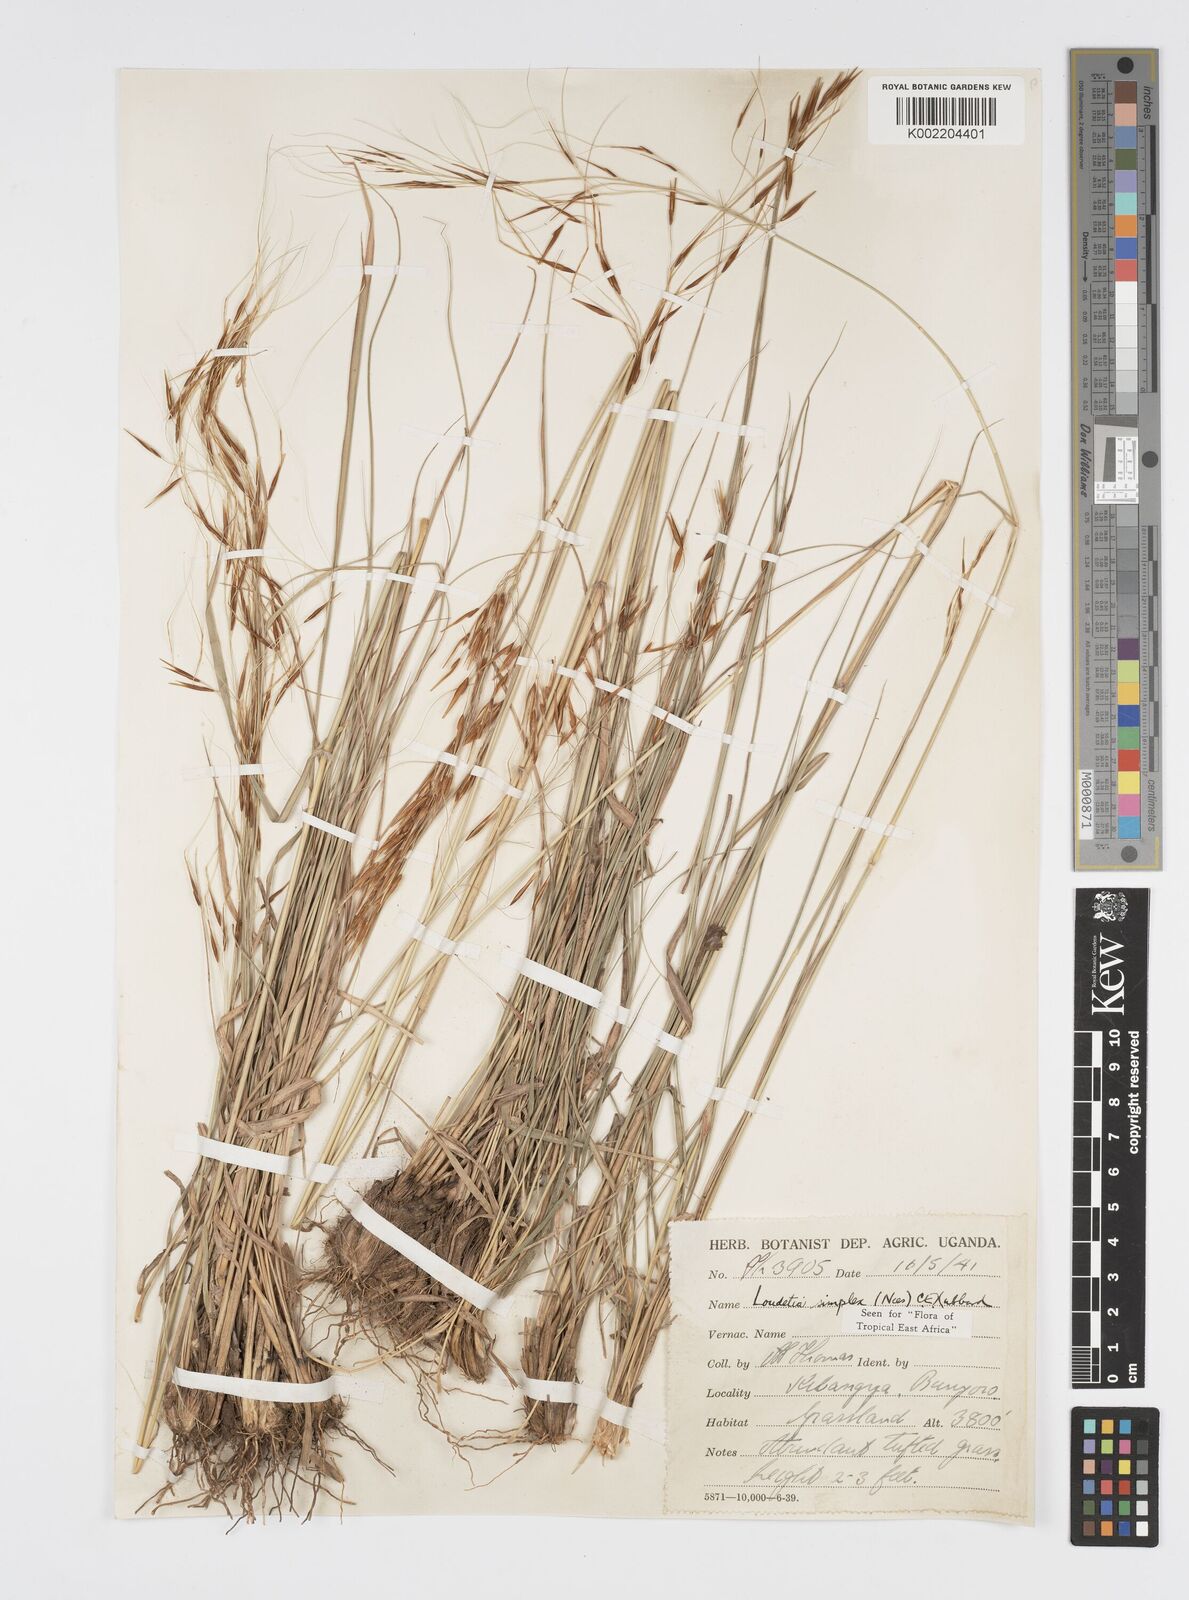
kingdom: Plantae
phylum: Tracheophyta
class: Liliopsida
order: Poales
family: Poaceae
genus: Loudetia
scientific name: Loudetia simplex
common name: Common russet grass
